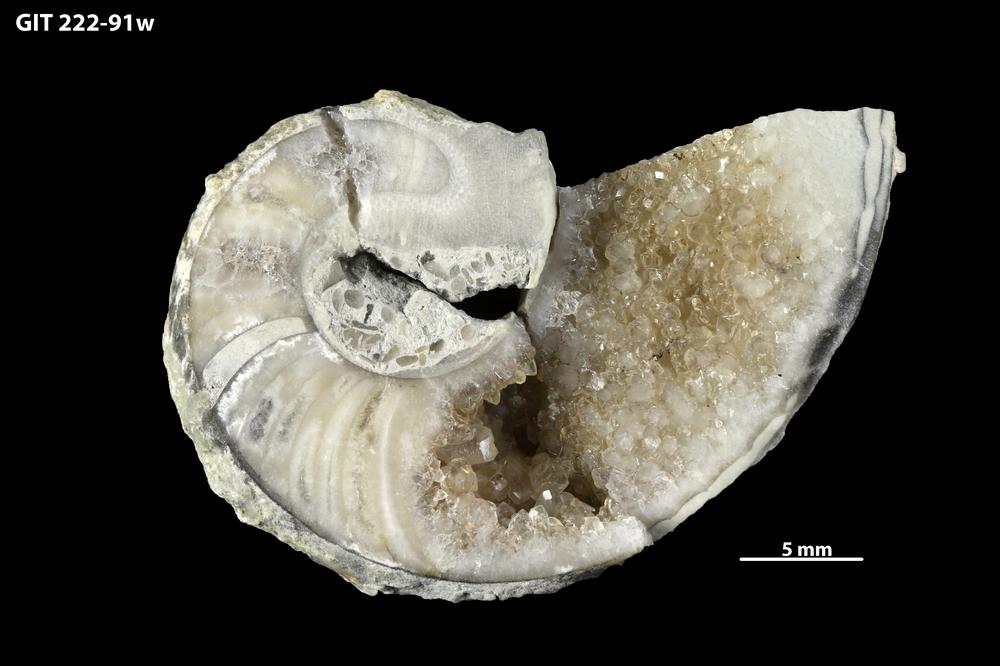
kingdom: Animalia
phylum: Mollusca
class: Cephalopoda
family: Barrandeoceratidae
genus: Vasalemmoceras
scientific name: Vasalemmoceras tolerabile
